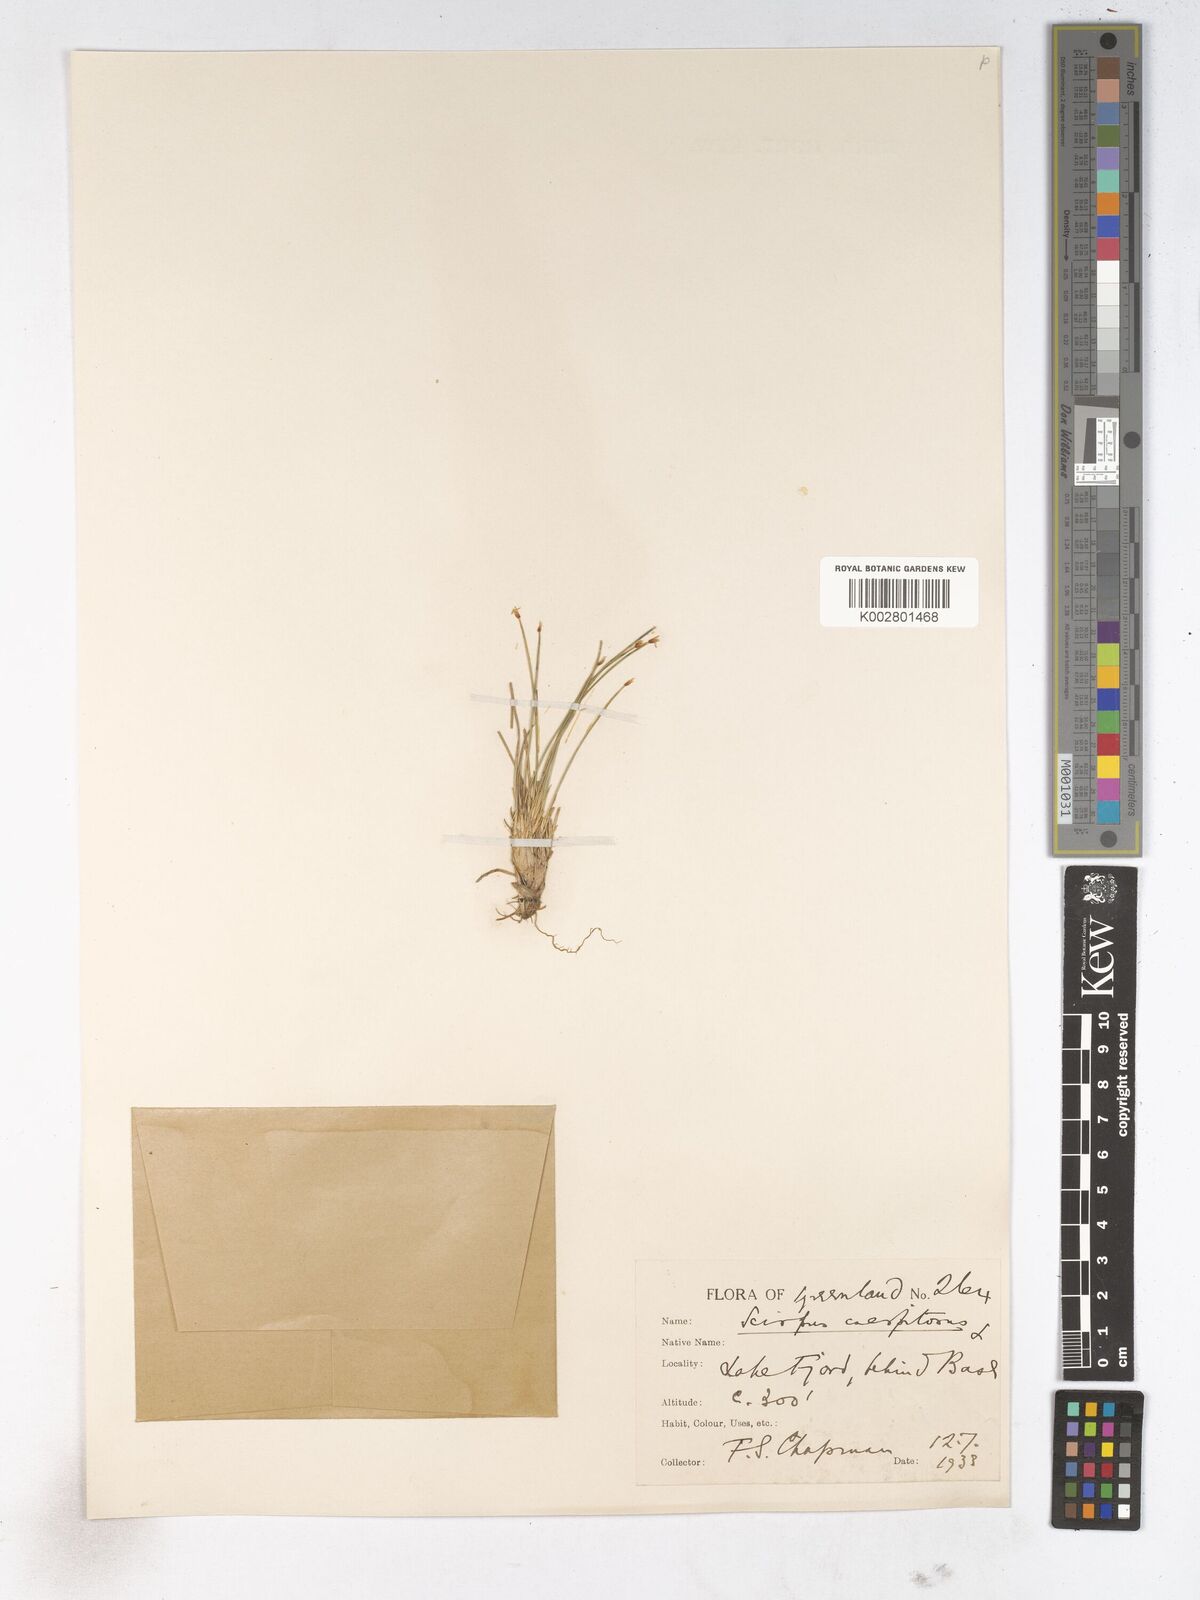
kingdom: Plantae
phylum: Tracheophyta
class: Liliopsida
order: Poales
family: Cyperaceae
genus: Trichophorum
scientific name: Trichophorum cespitosum
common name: Cespitose bulrush
